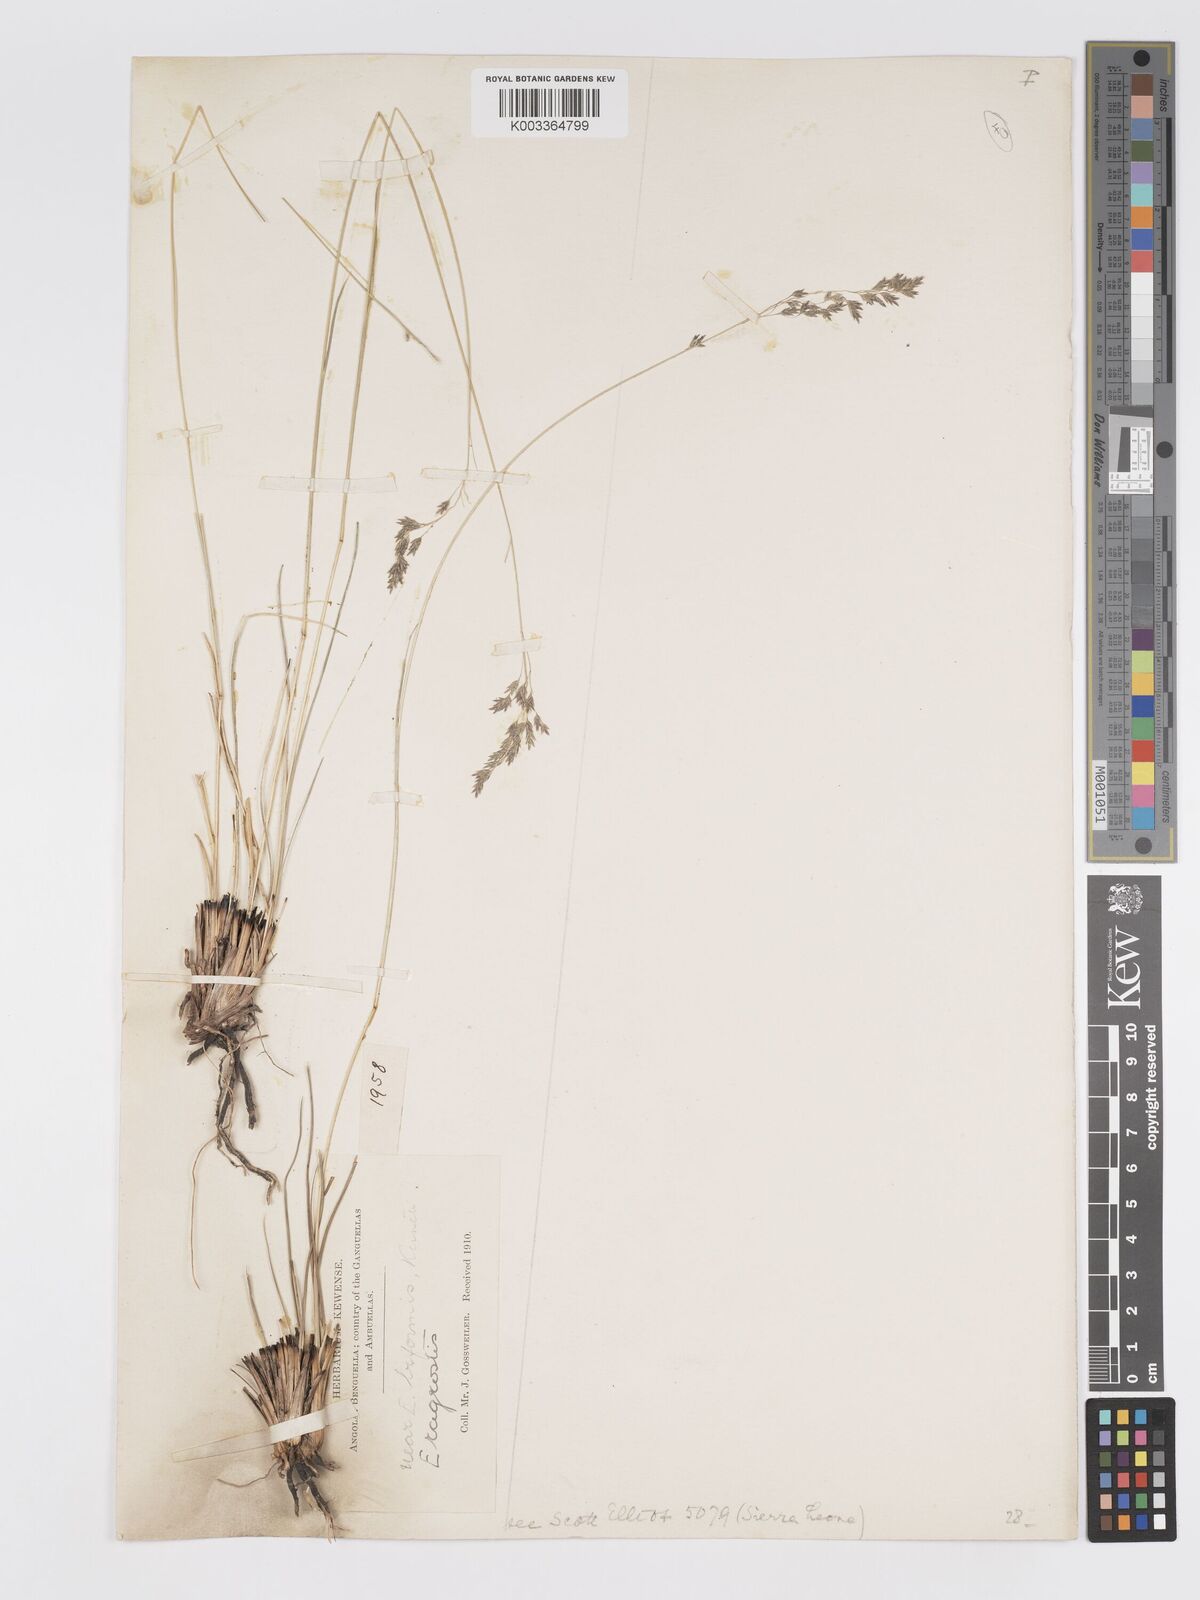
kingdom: Plantae
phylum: Tracheophyta
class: Liliopsida
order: Poales
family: Poaceae
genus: Eragrostis
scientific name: Eragrostis hierniana
